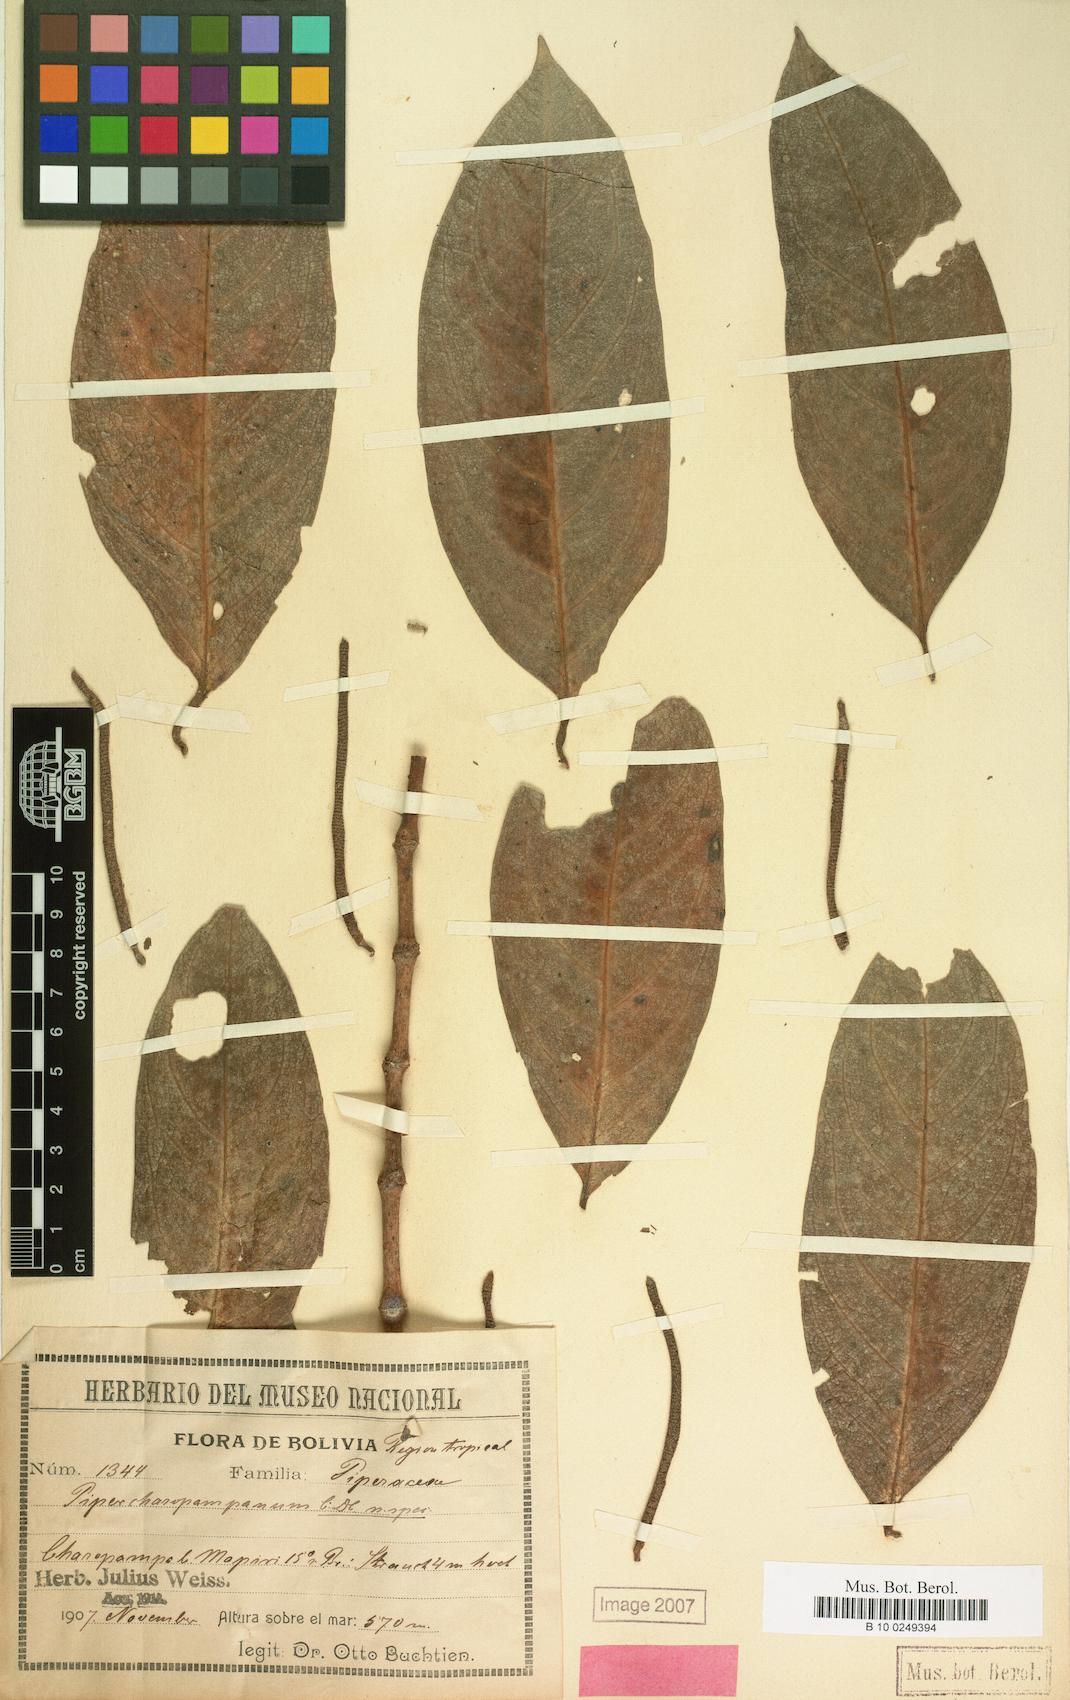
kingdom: Plantae
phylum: Tracheophyta
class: Magnoliopsida
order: Piperales
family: Piperaceae
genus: Piper
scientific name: Piper heterophyllum
